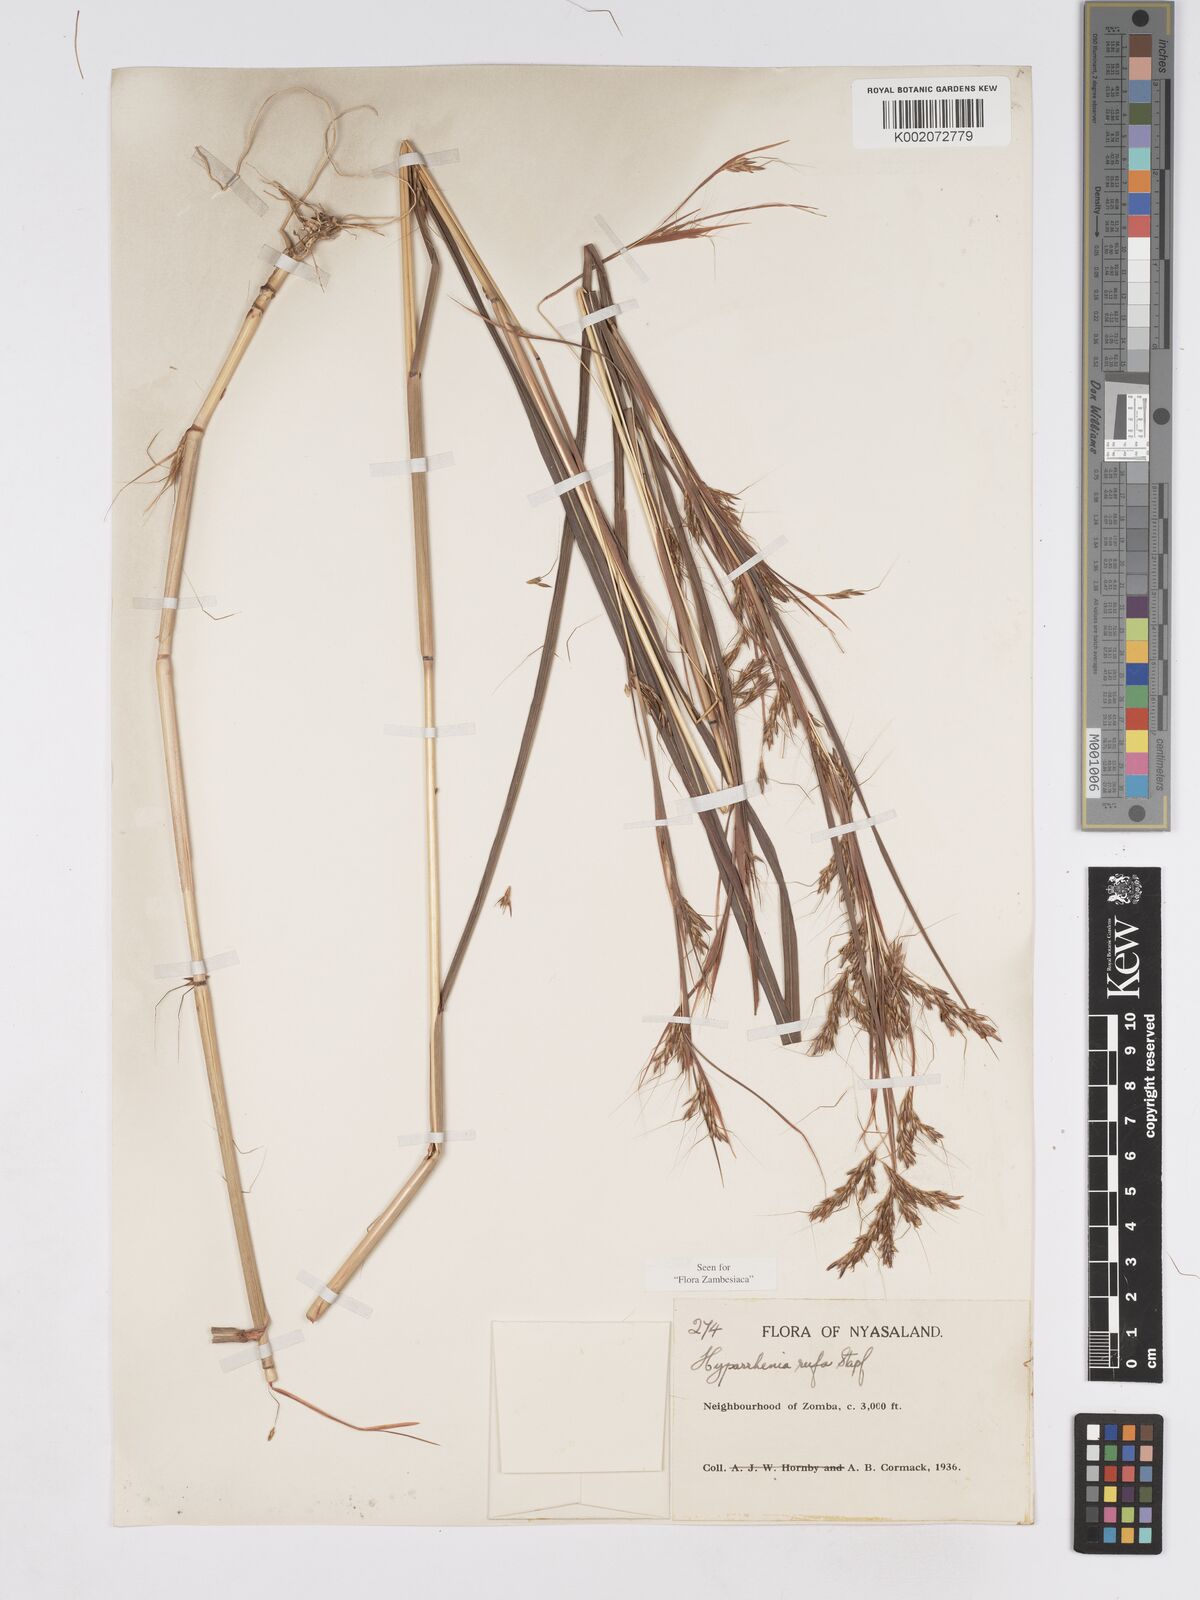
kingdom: Plantae
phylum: Tracheophyta
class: Liliopsida
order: Poales
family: Poaceae
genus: Hyparrhenia
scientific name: Hyparrhenia rufa
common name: Jaraguagrass
